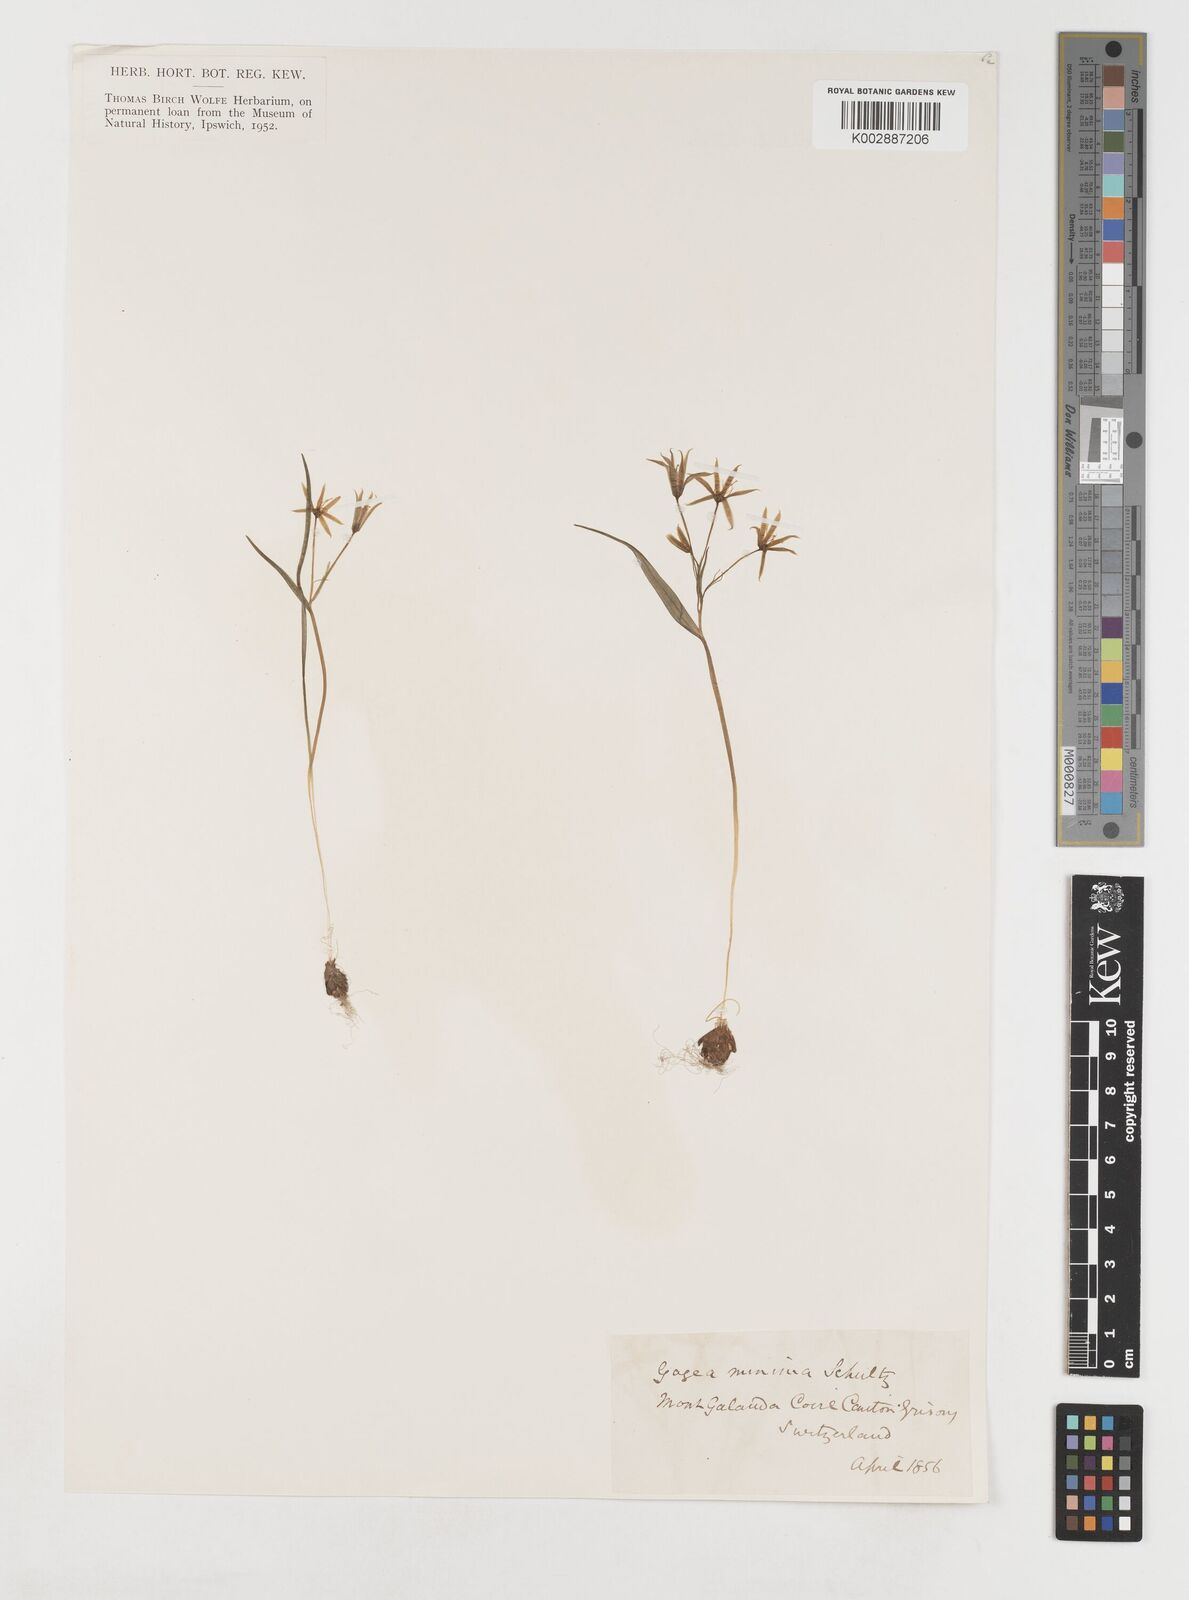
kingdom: Plantae
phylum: Tracheophyta
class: Liliopsida
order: Liliales
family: Liliaceae
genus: Gagea
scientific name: Gagea minima
